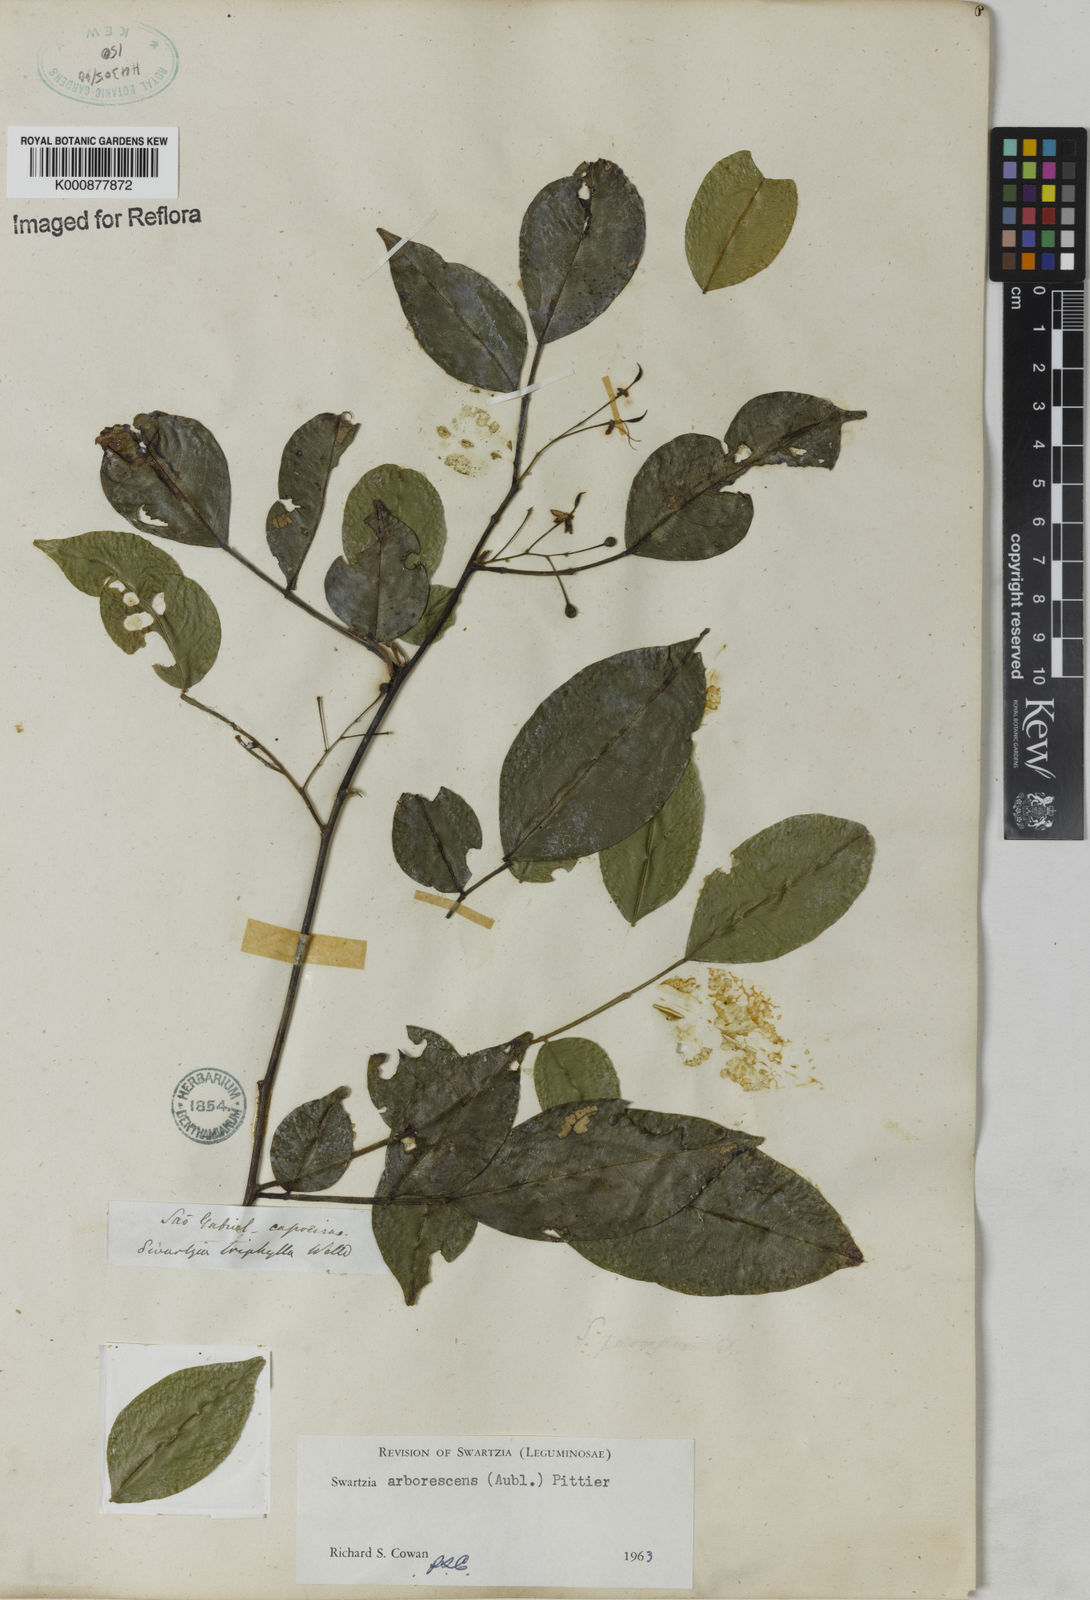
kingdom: Plantae
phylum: Tracheophyta
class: Magnoliopsida
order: Fabales
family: Fabaceae
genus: Swartzia
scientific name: Swartzia arborescens
